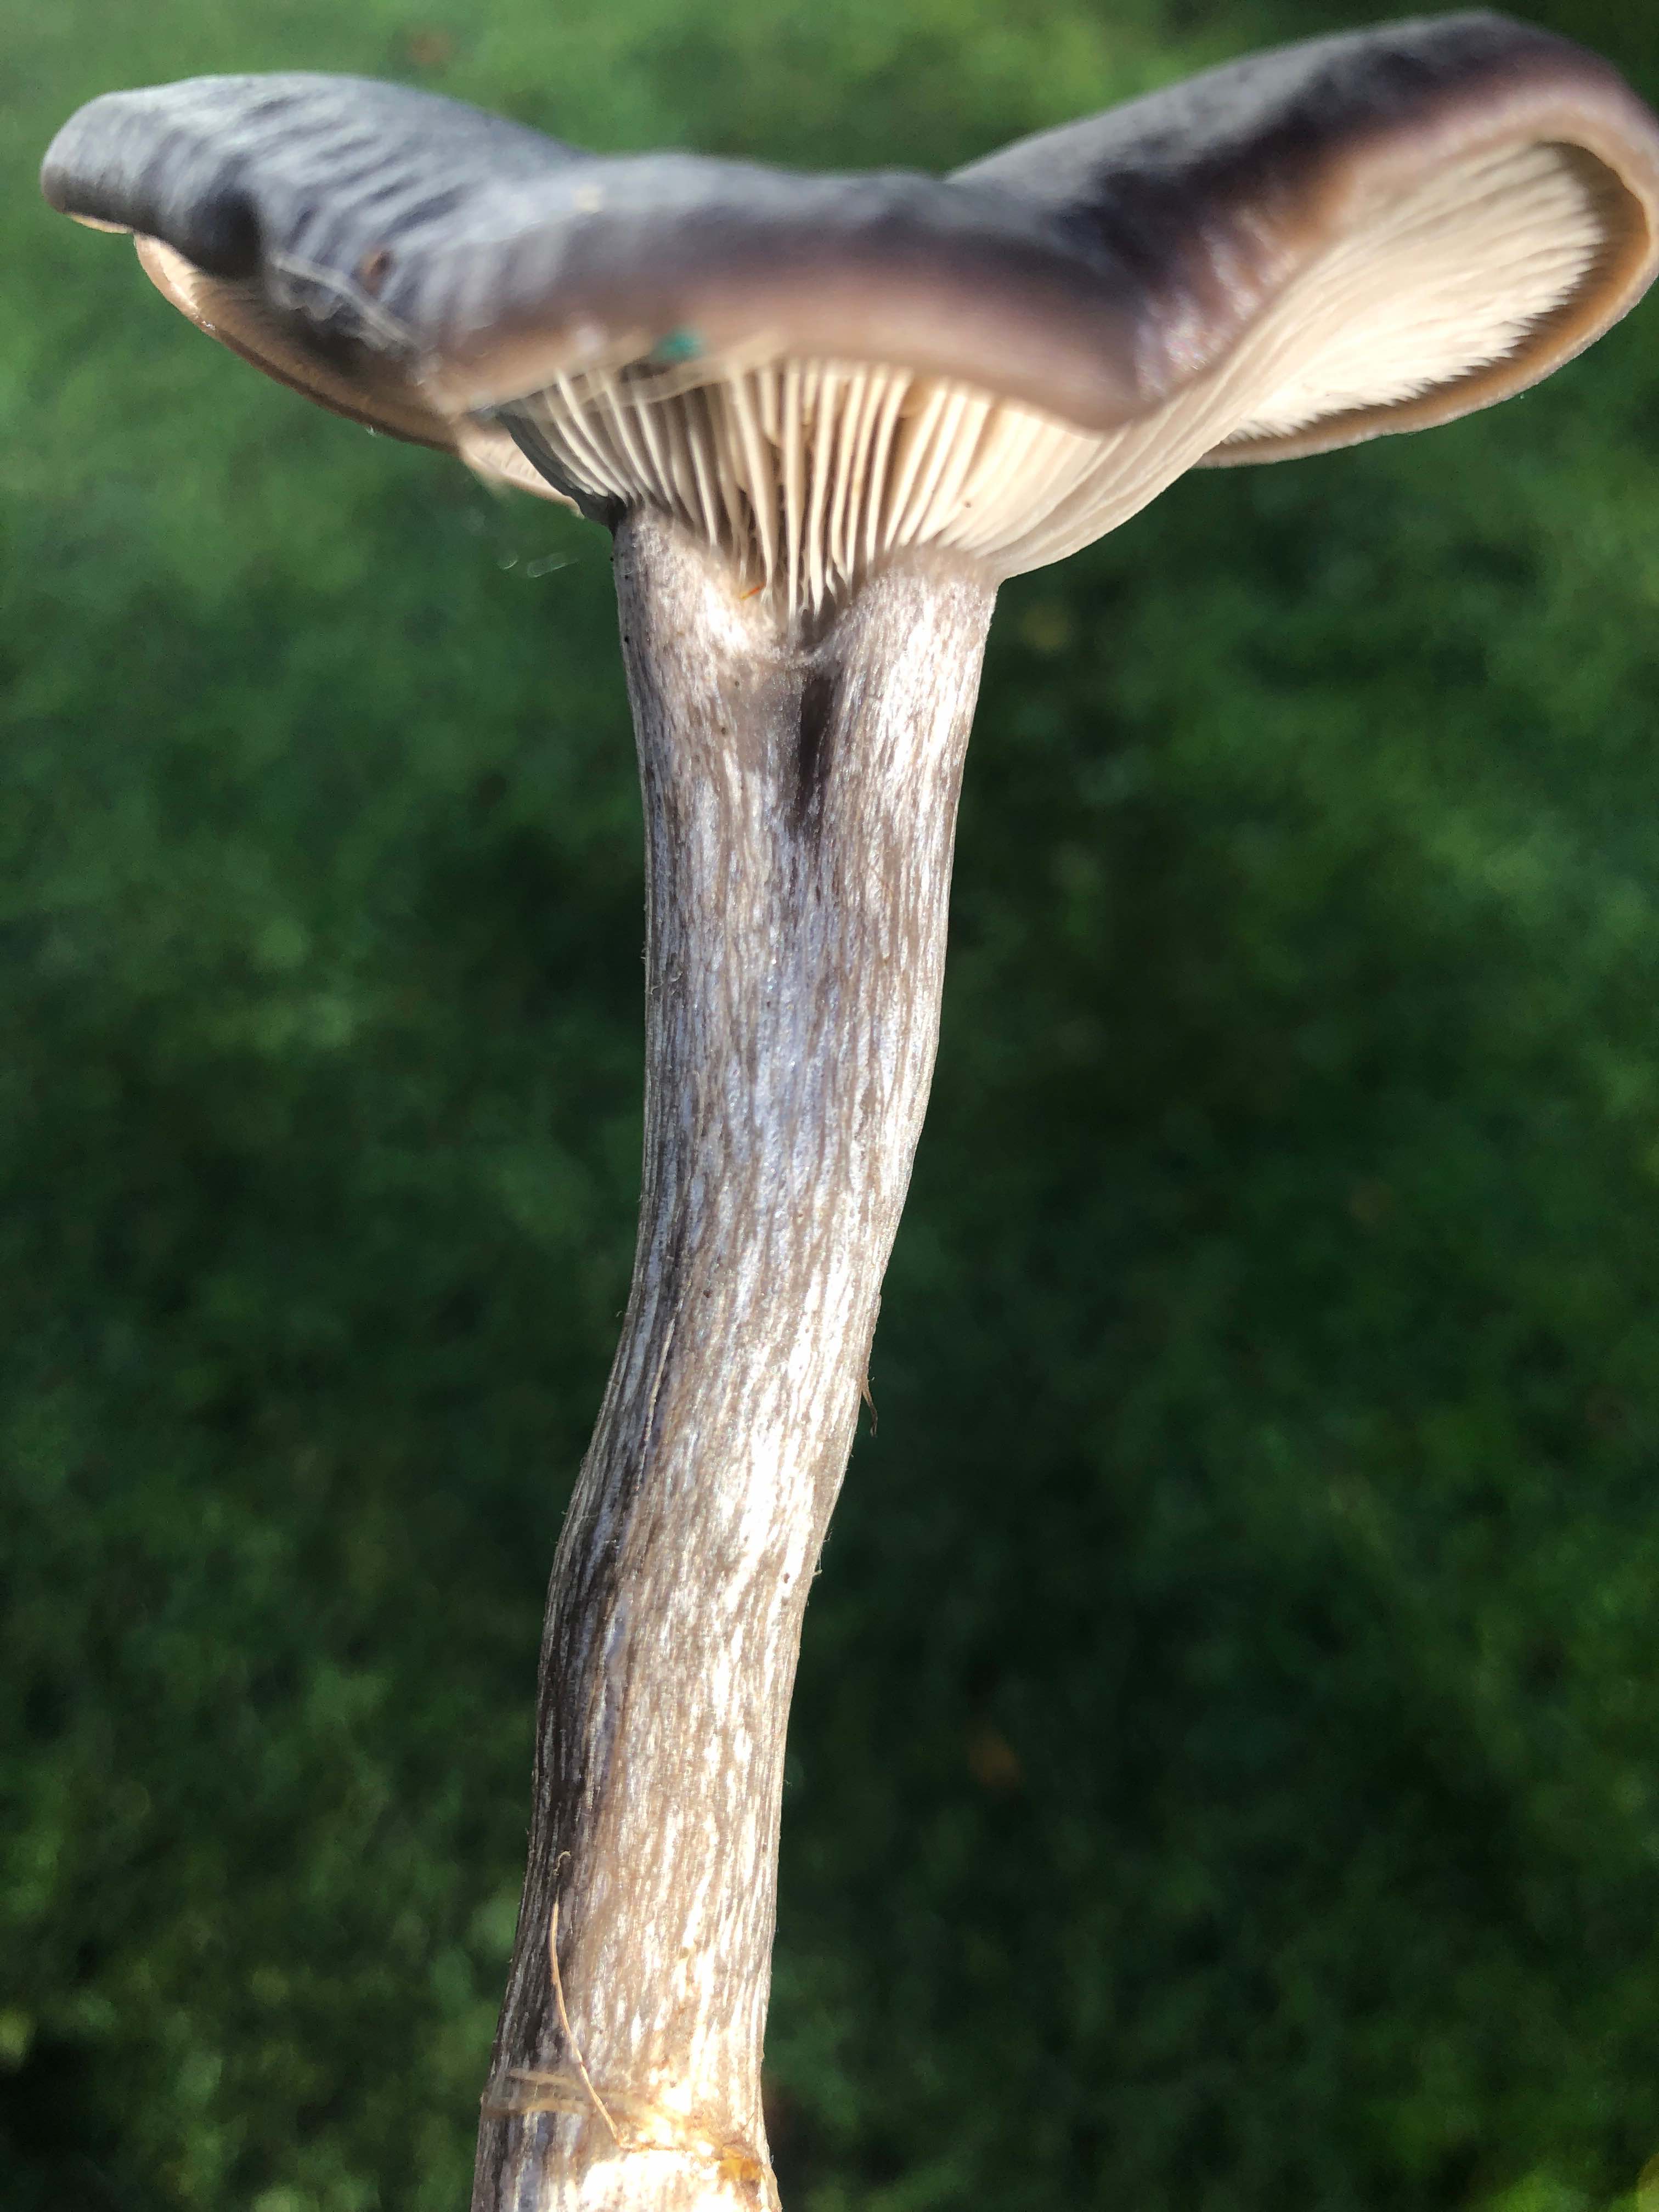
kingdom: Fungi
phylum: Basidiomycota
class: Agaricomycetes
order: Agaricales
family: Pseudoclitocybaceae
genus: Pseudoclitocybe
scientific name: Pseudoclitocybe cyathiformis
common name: almindelig bægertragthat
